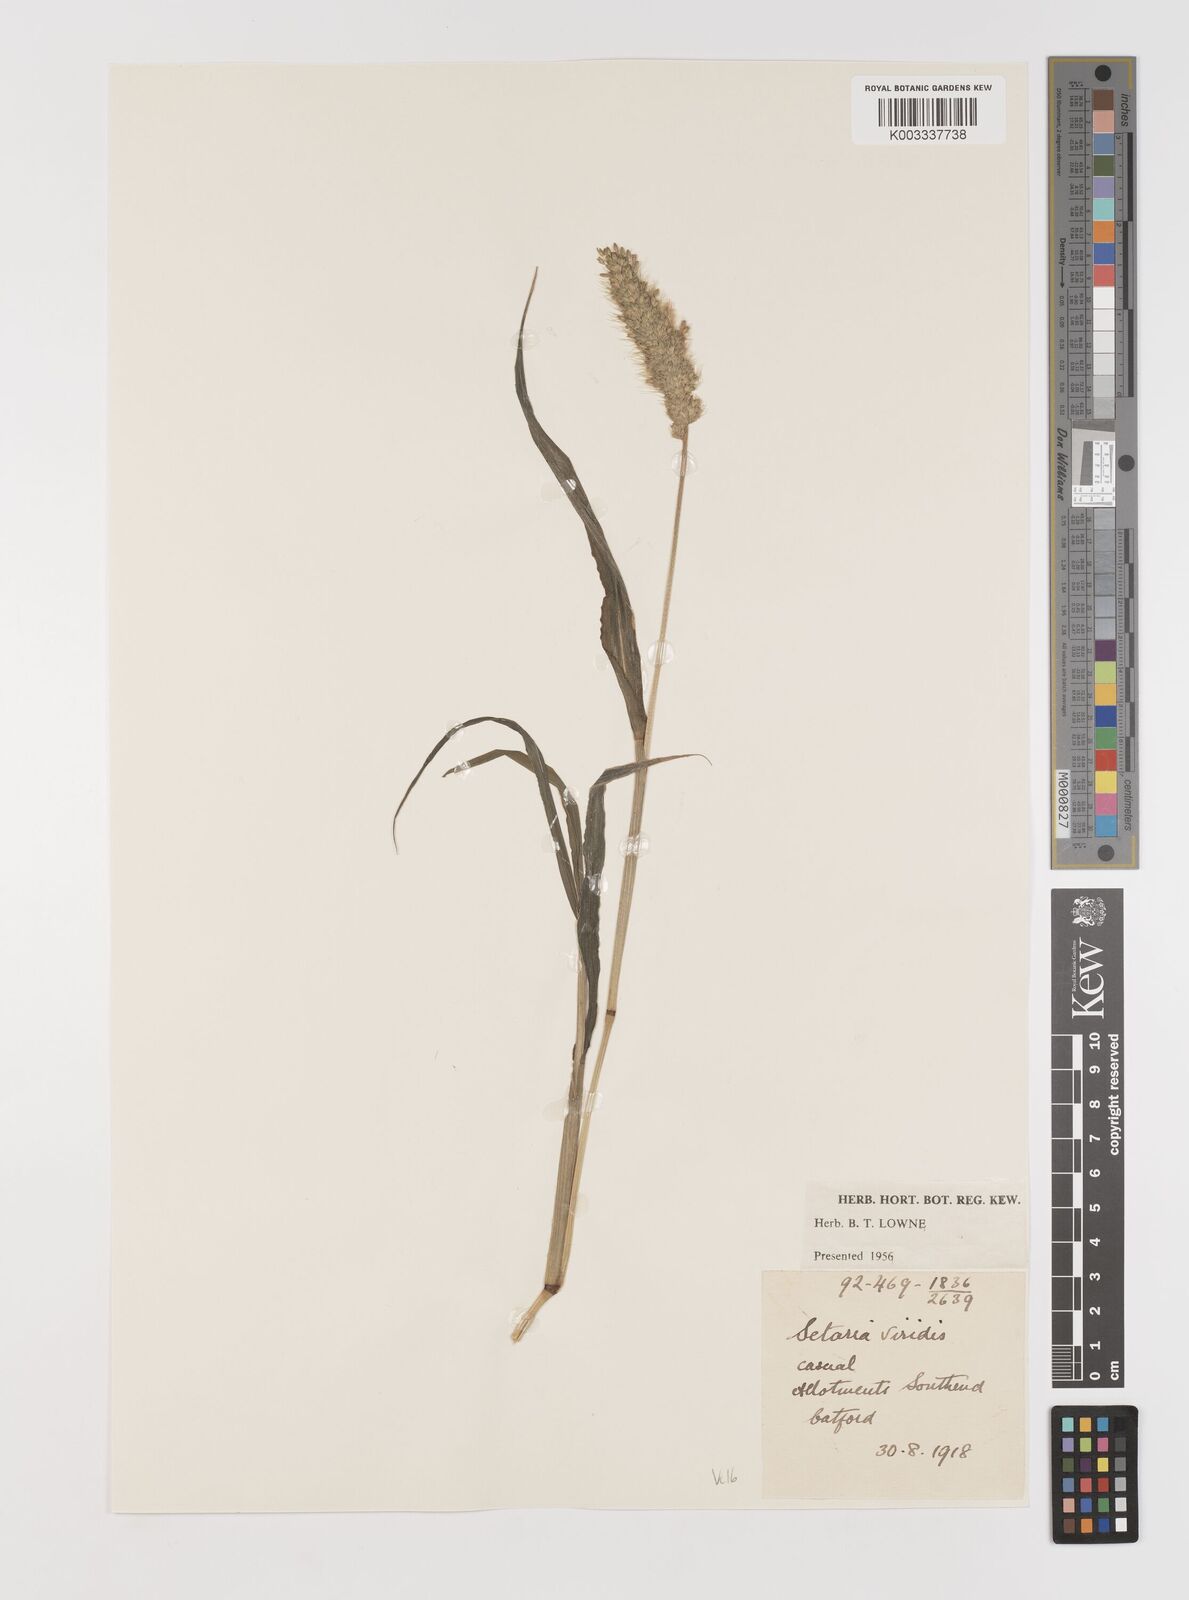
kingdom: Plantae
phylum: Tracheophyta
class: Liliopsida
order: Poales
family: Poaceae
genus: Setaria
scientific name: Setaria viridis
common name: Green bristlegrass
